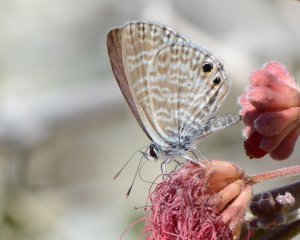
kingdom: Animalia
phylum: Arthropoda
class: Insecta
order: Lepidoptera
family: Lycaenidae
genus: Echinargus
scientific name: Echinargus isola
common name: Reakirt's Blue
